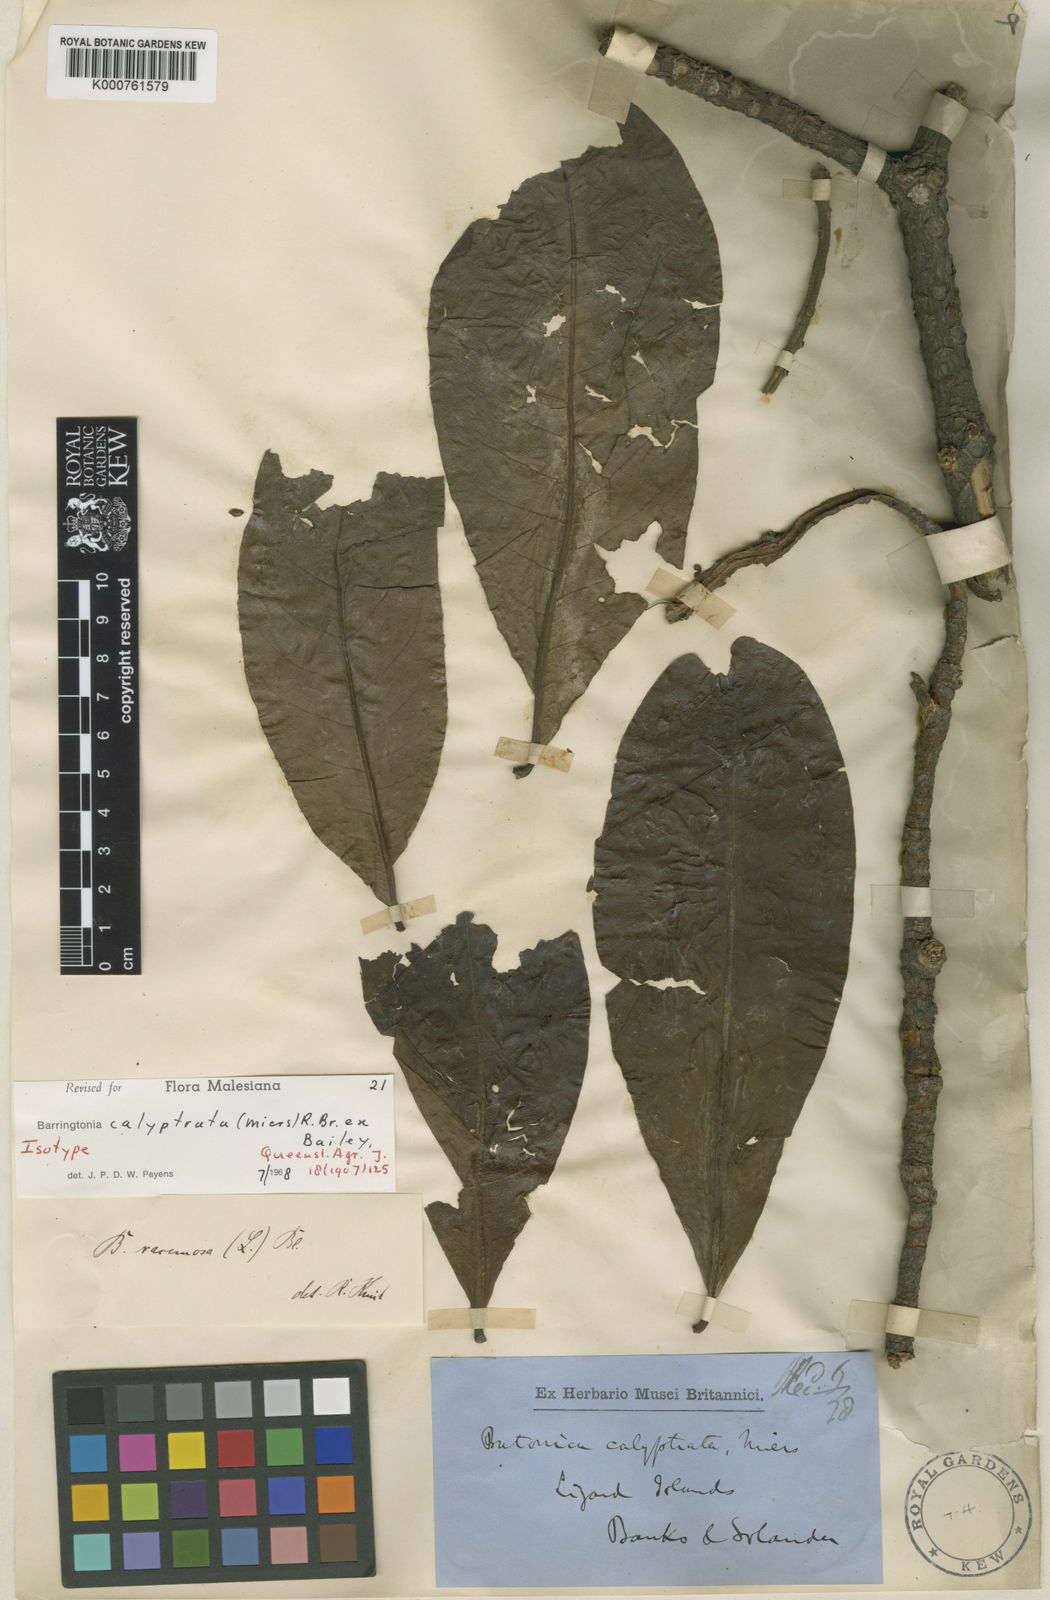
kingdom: Plantae
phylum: Tracheophyta
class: Magnoliopsida
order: Ericales
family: Lecythidaceae
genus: Barringtonia
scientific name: Barringtonia
